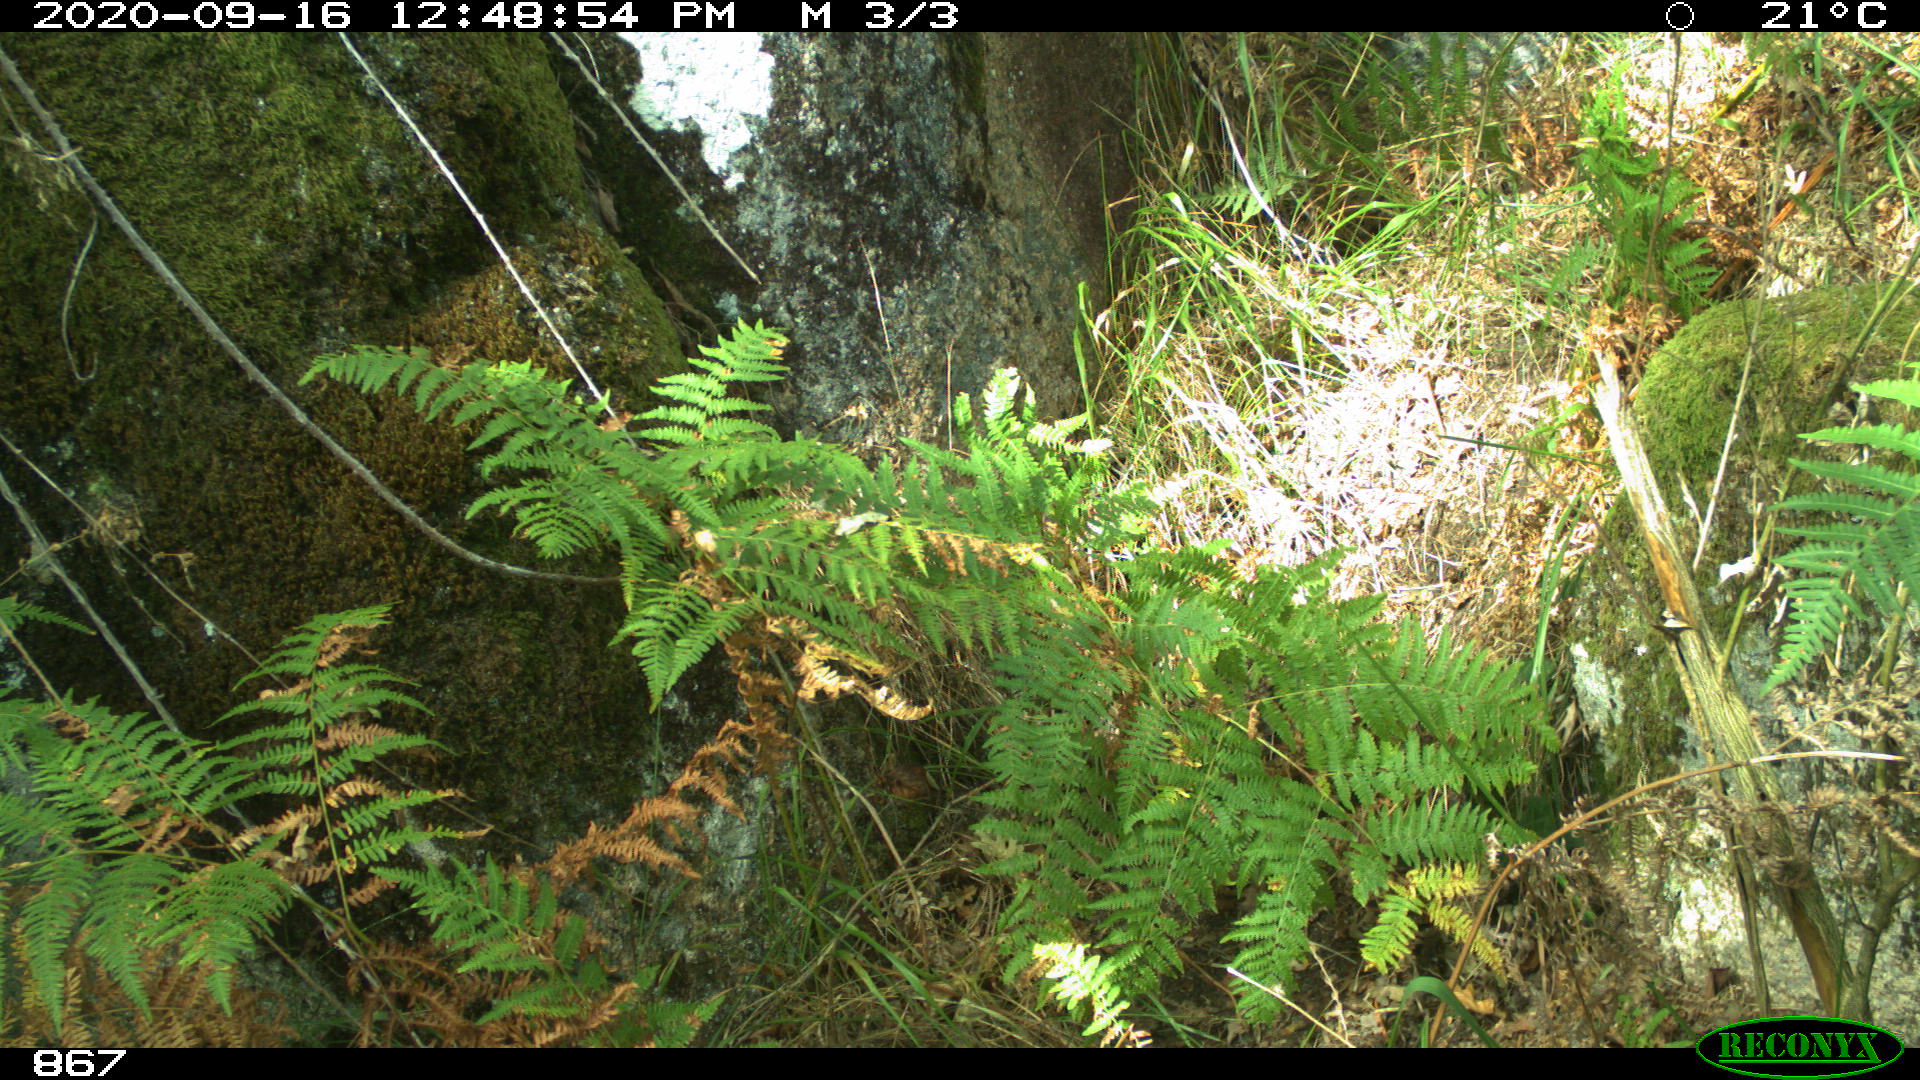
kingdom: Animalia
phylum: Chordata
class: Mammalia
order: Artiodactyla
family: Suidae
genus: Sus
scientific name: Sus scrofa
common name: Wild boar
